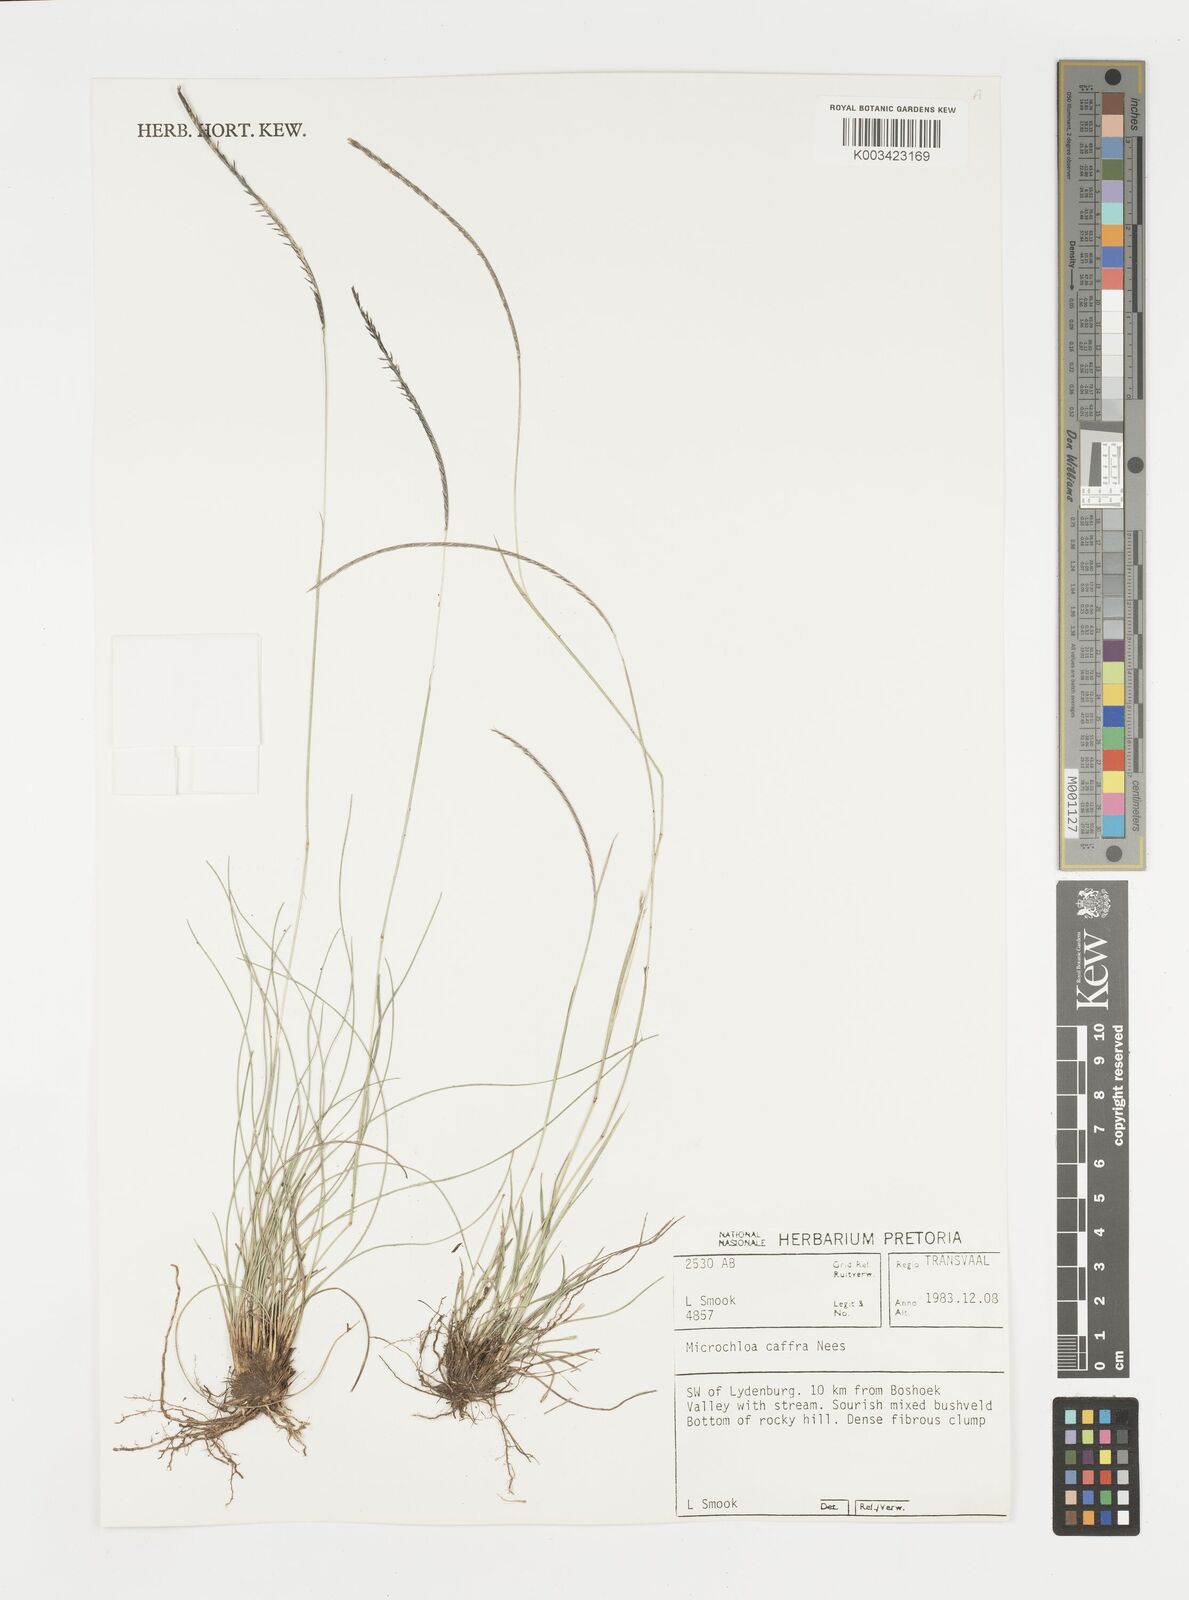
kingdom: Plantae
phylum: Tracheophyta
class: Liliopsida
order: Poales
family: Poaceae
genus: Microchloa
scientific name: Microchloa caffra
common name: Pincushion grass
